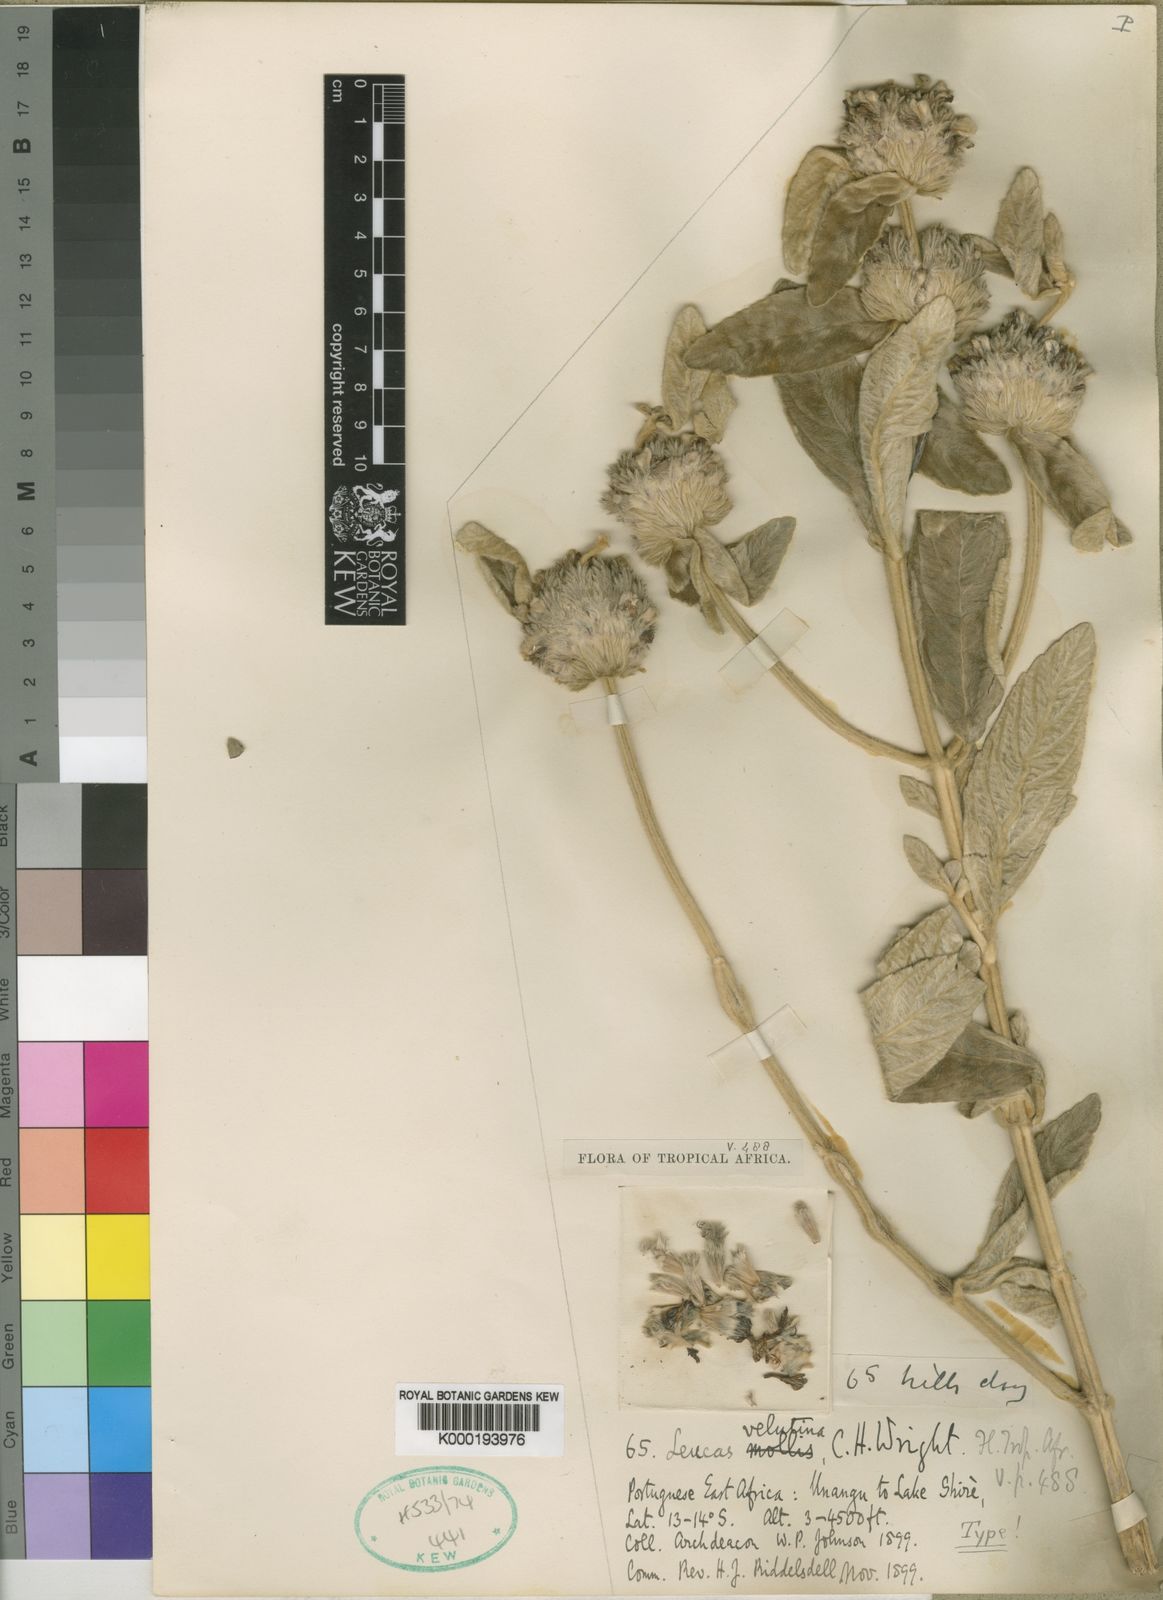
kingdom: Plantae
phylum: Tracheophyta
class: Magnoliopsida
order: Lamiales
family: Lamiaceae
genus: Leucas
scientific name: Leucas nyassae
